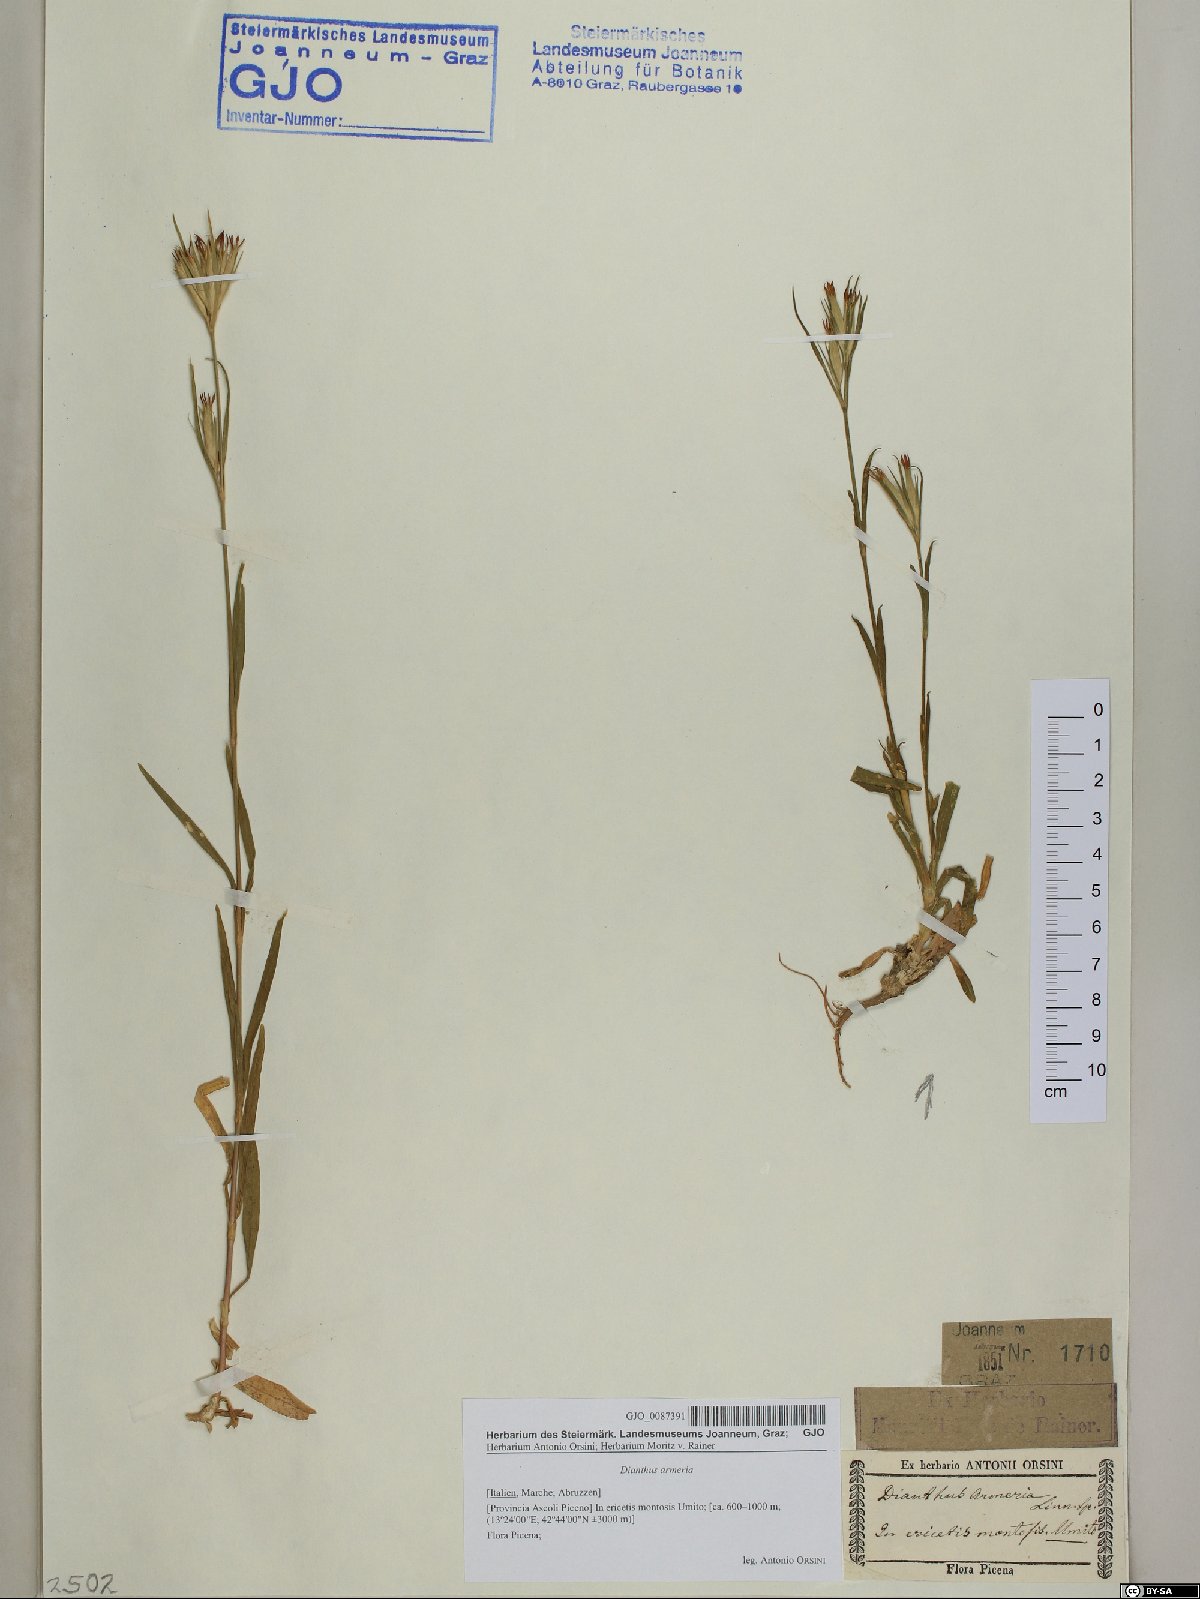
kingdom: Plantae
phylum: Tracheophyta
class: Magnoliopsida
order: Caryophyllales
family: Caryophyllaceae
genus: Dianthus
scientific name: Dianthus armeria
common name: Deptford pink
